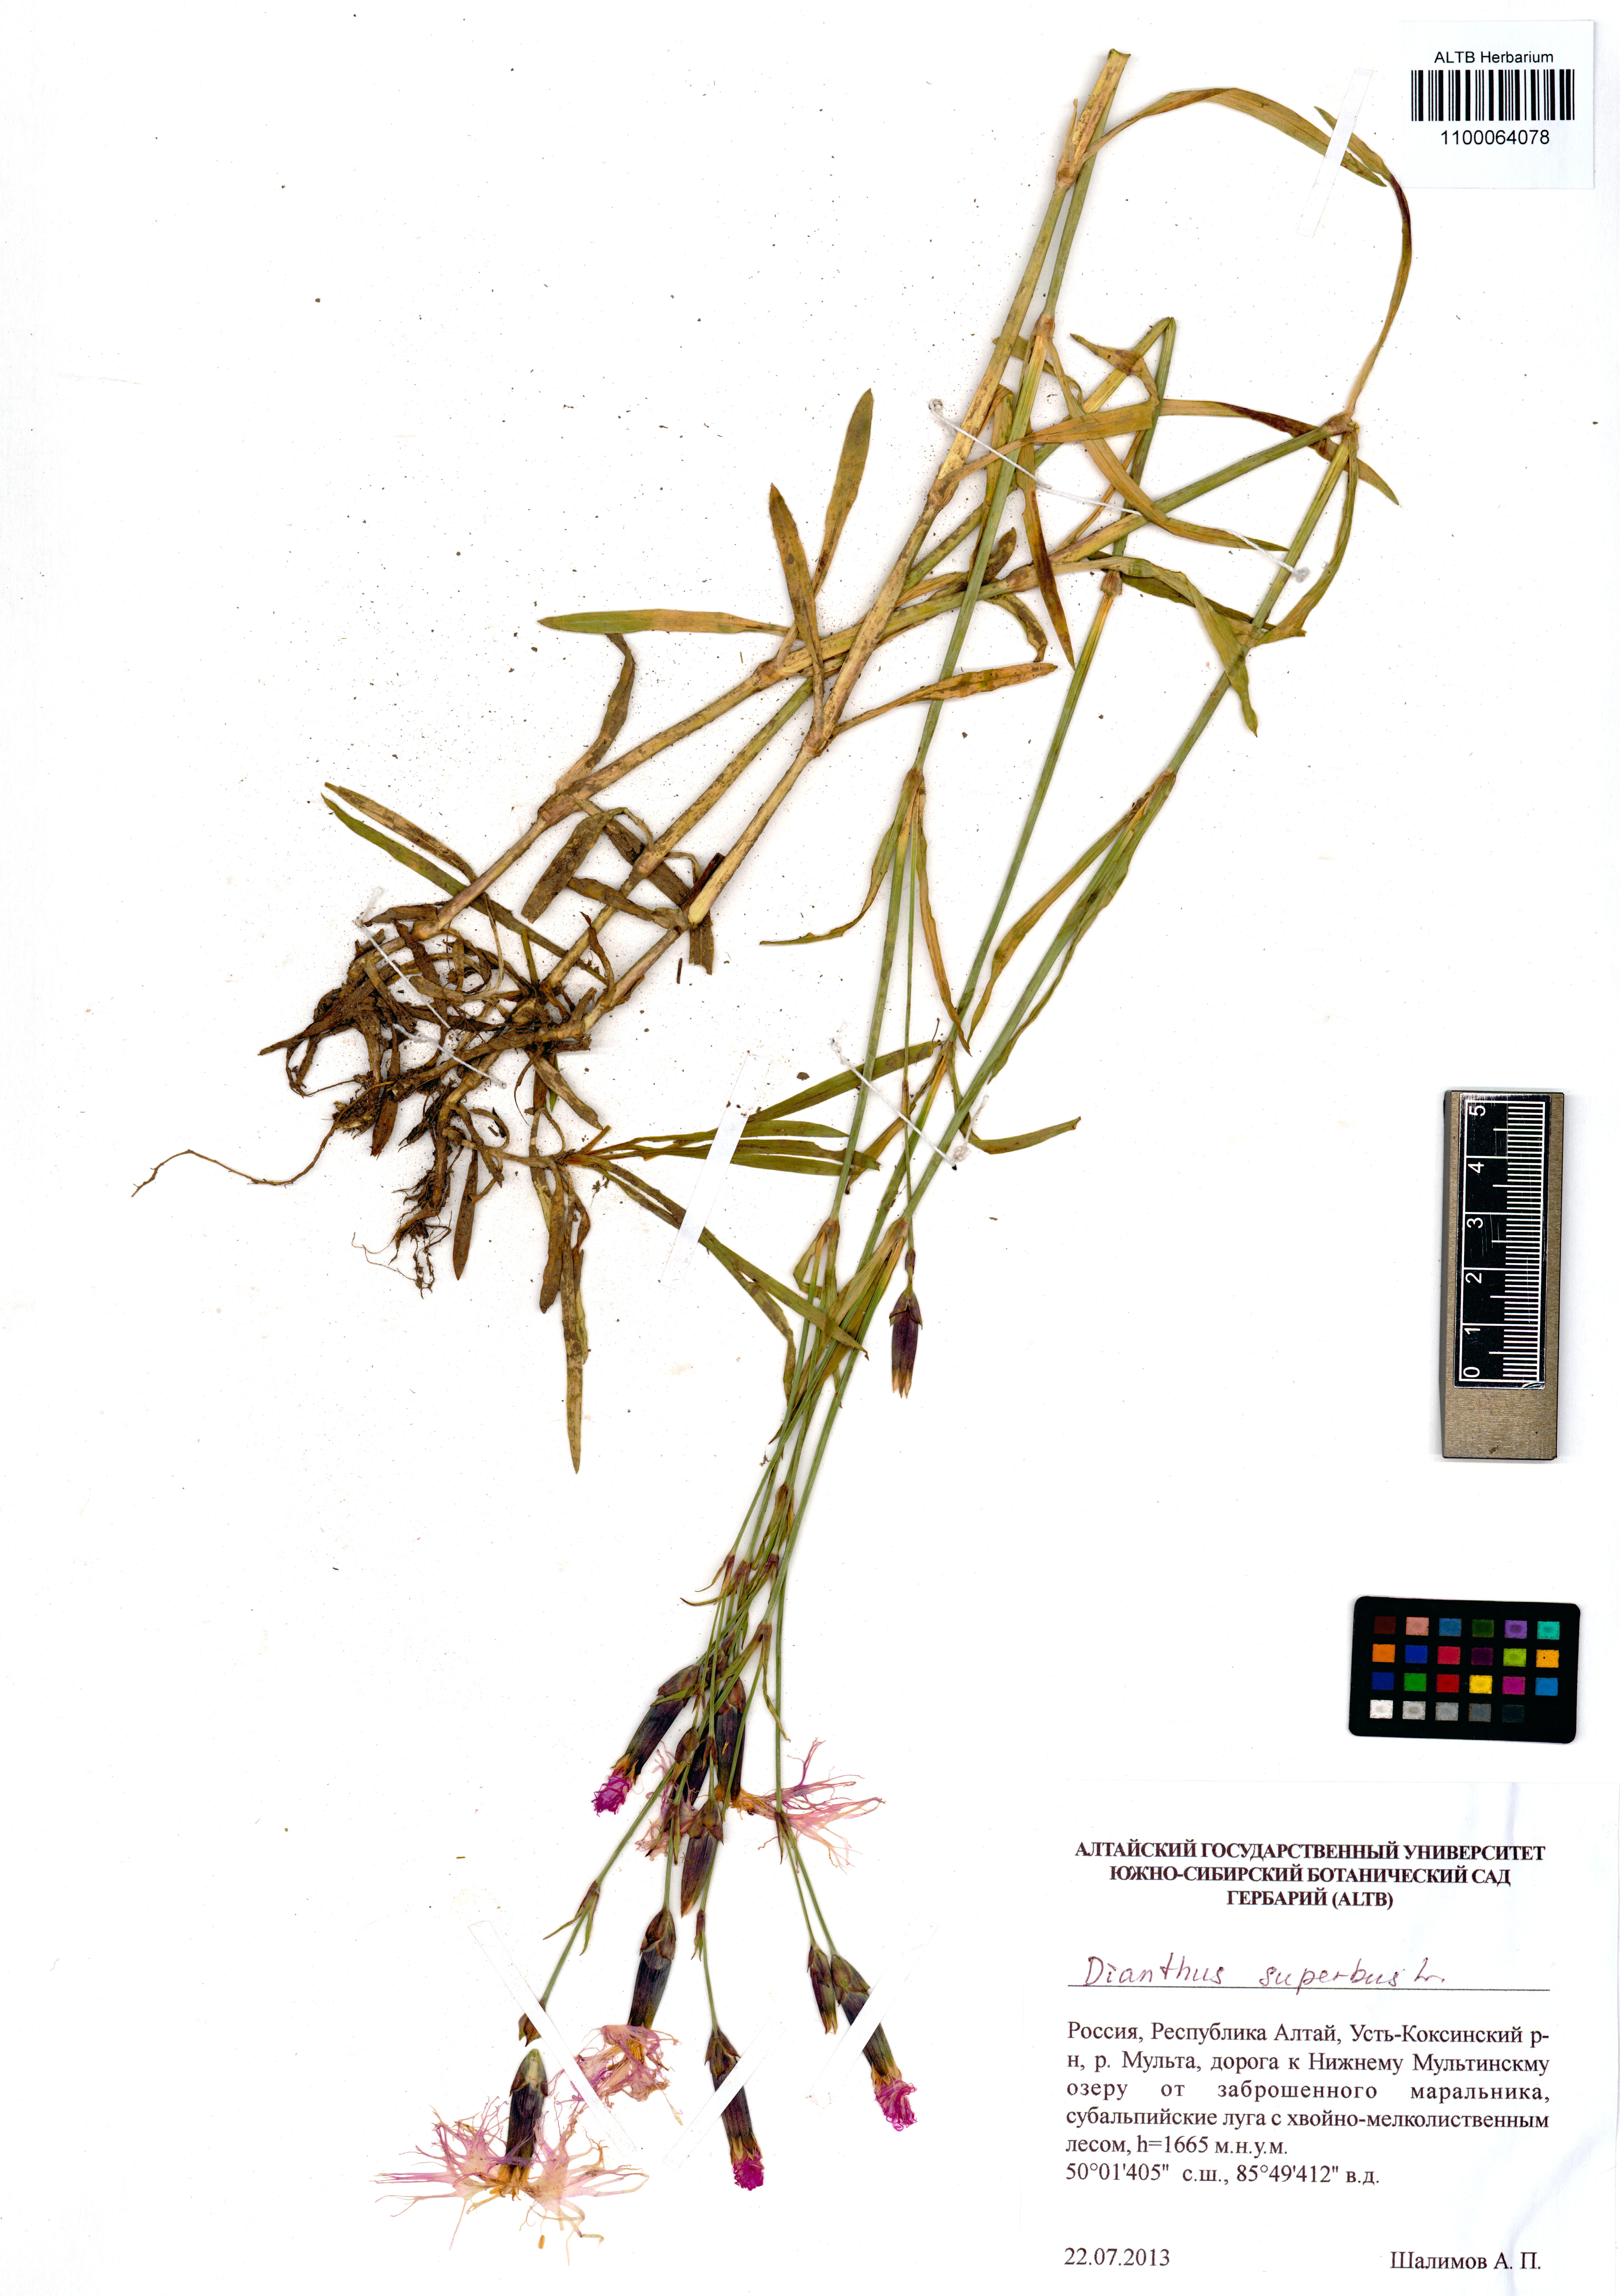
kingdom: Plantae
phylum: Tracheophyta
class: Magnoliopsida
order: Caryophyllales
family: Caryophyllaceae
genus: Dianthus
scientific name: Dianthus superbus
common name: Fringed pink
